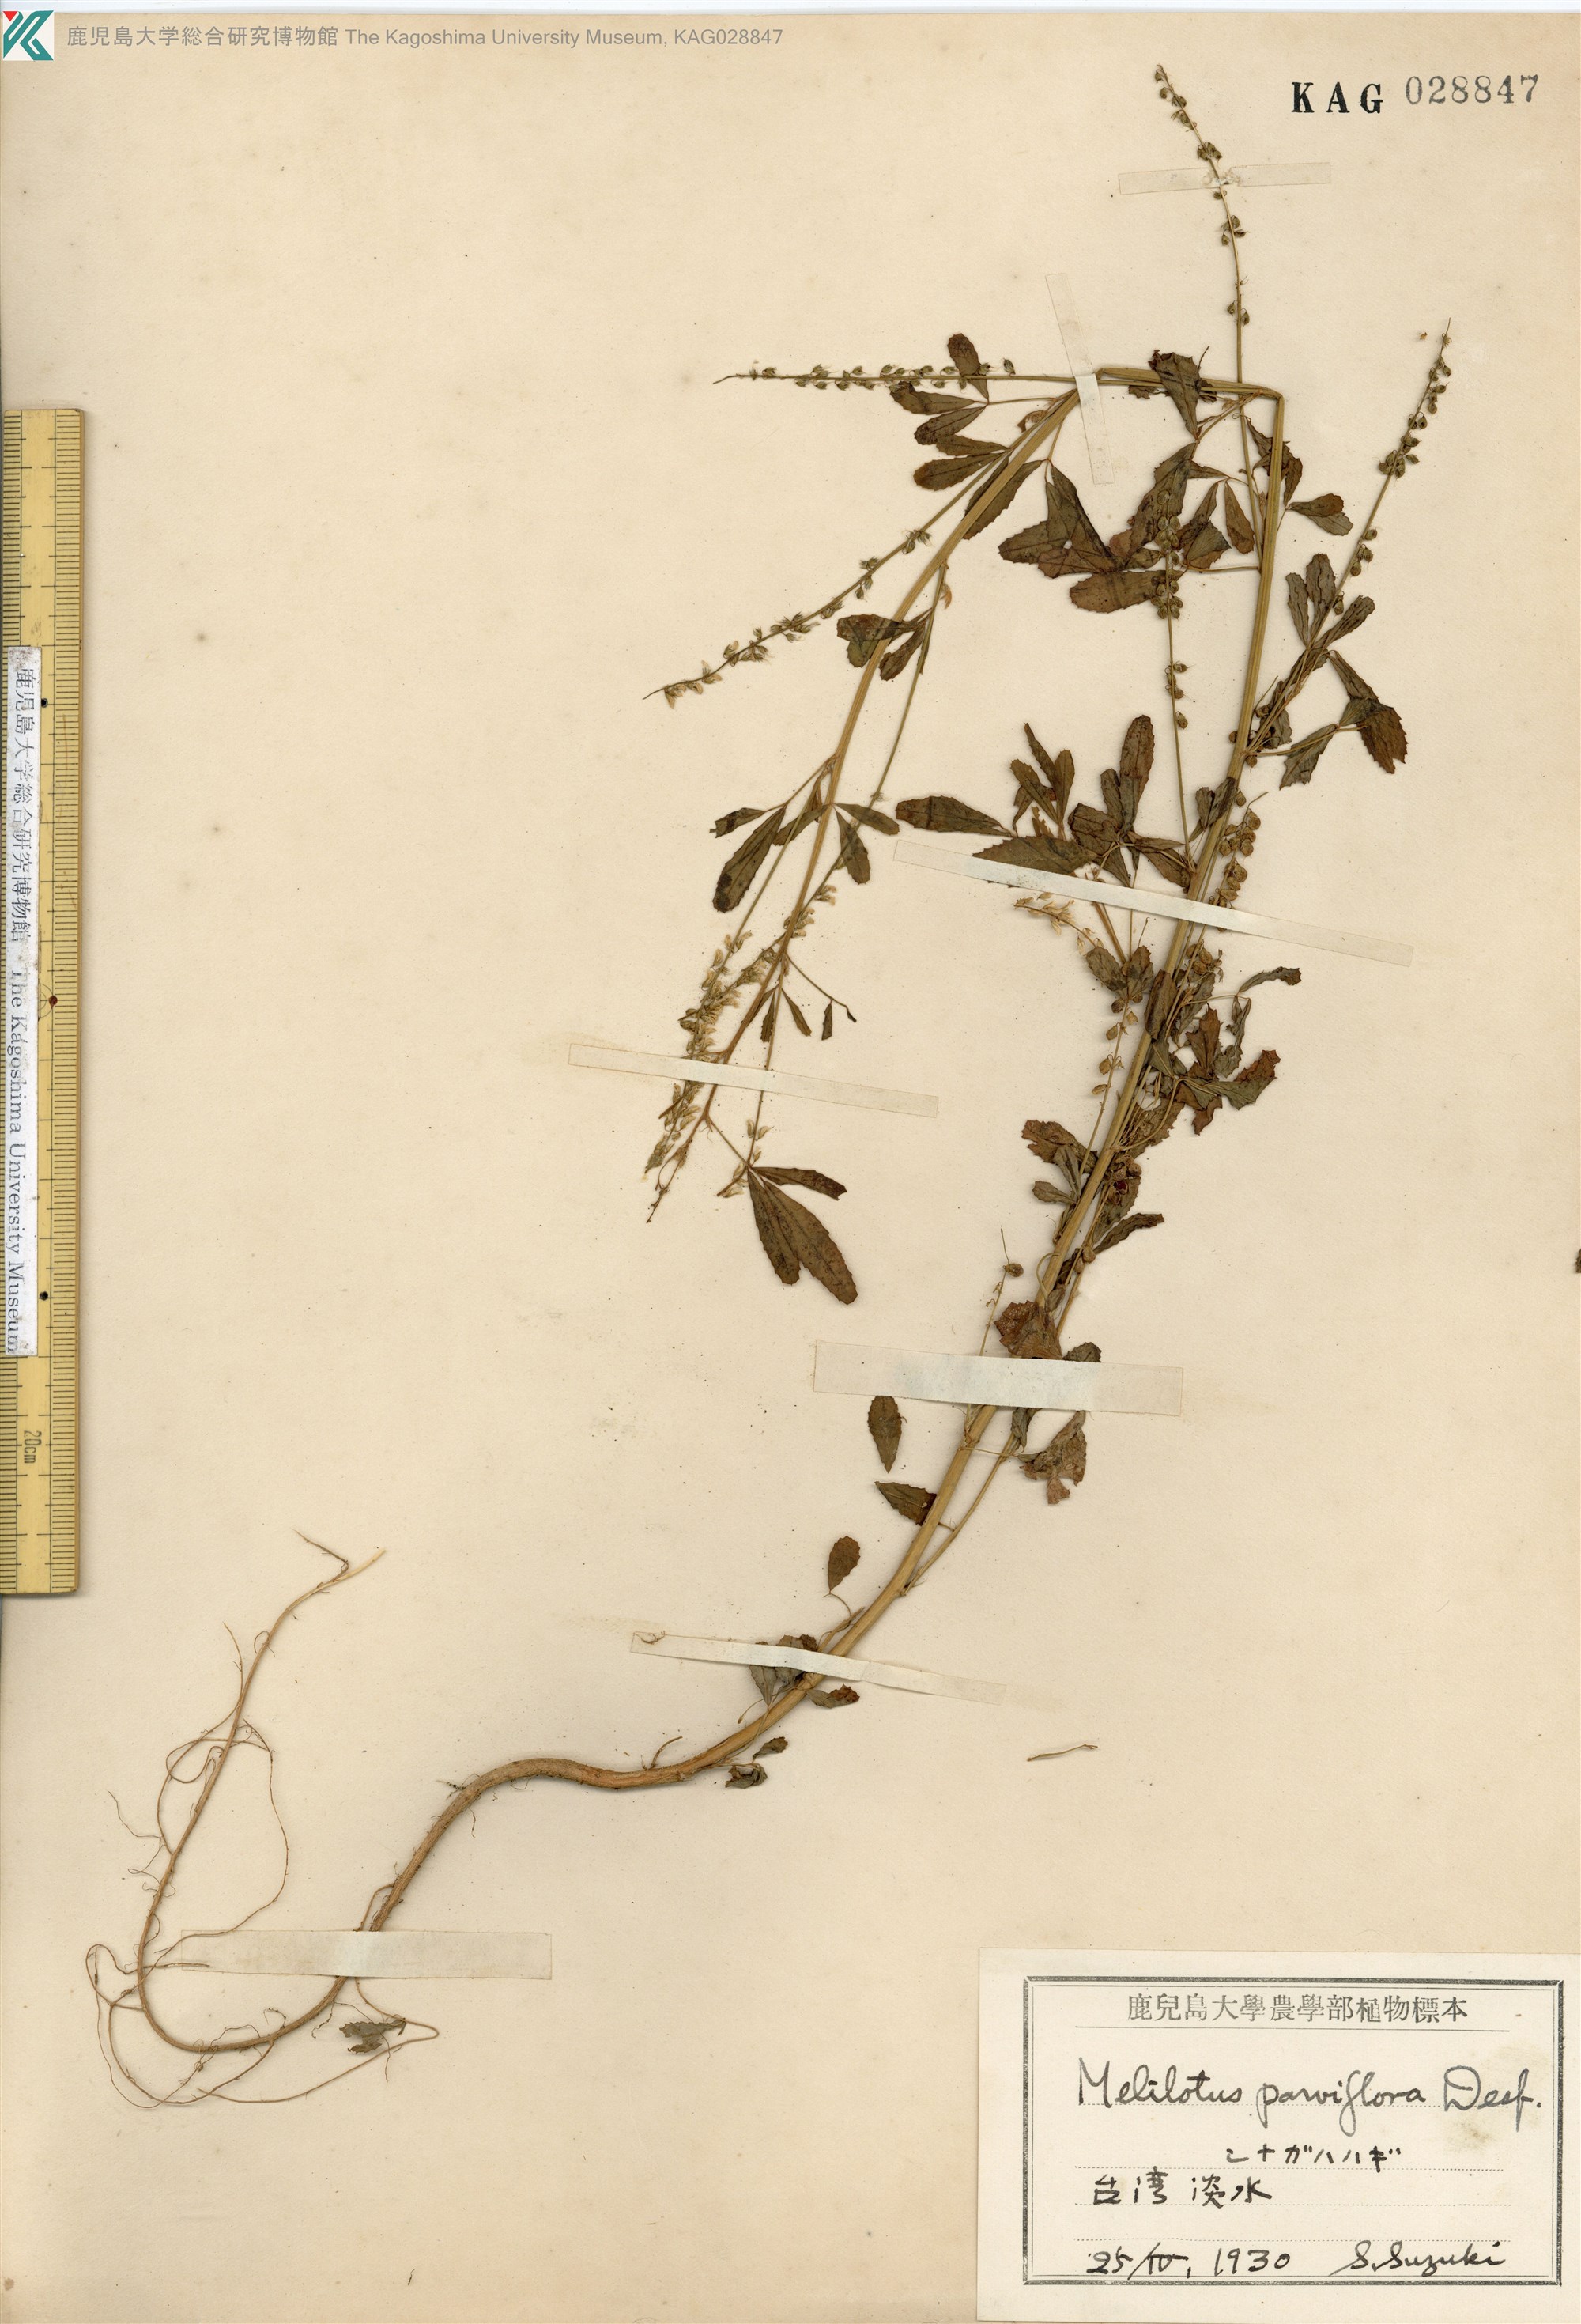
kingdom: Plantae
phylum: Tracheophyta
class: Magnoliopsida
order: Fabales
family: Fabaceae
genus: Melilotus
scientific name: Melilotus suaveolens
